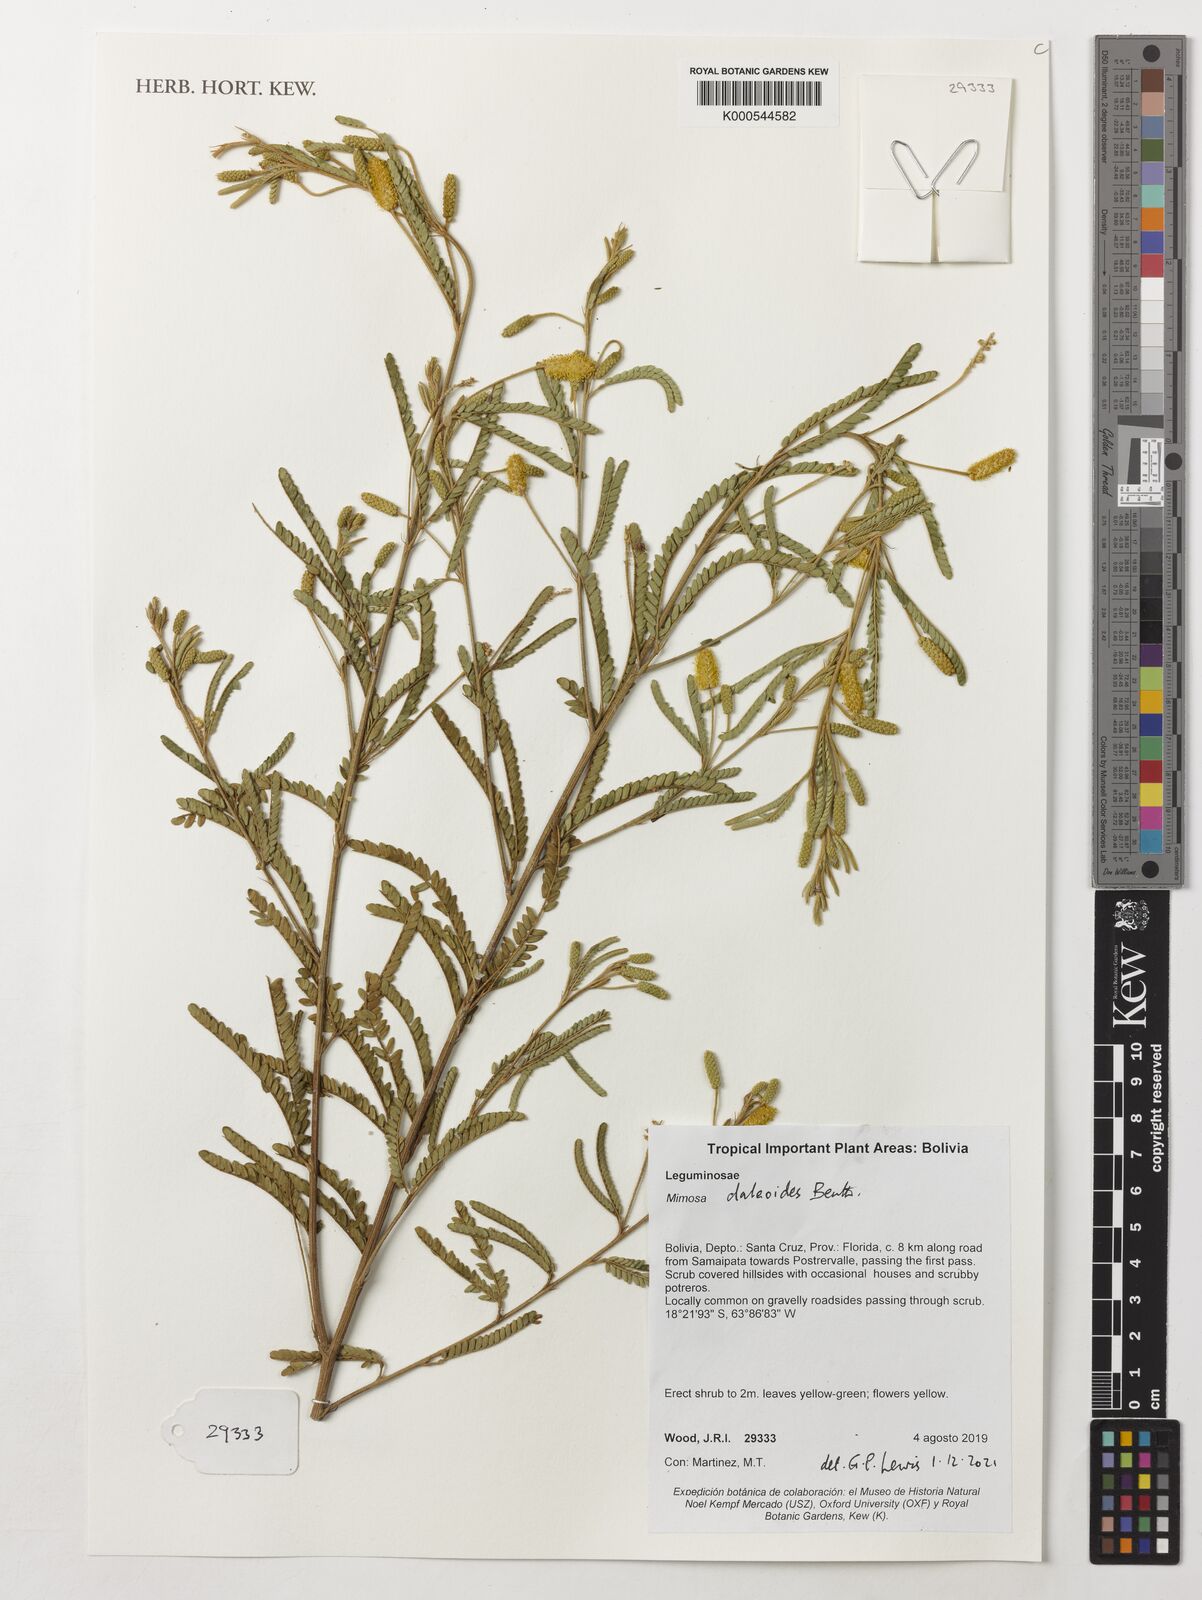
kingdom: Plantae
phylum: Tracheophyta
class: Magnoliopsida
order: Fabales
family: Fabaceae
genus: Mimosa
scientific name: Mimosa daleoides
